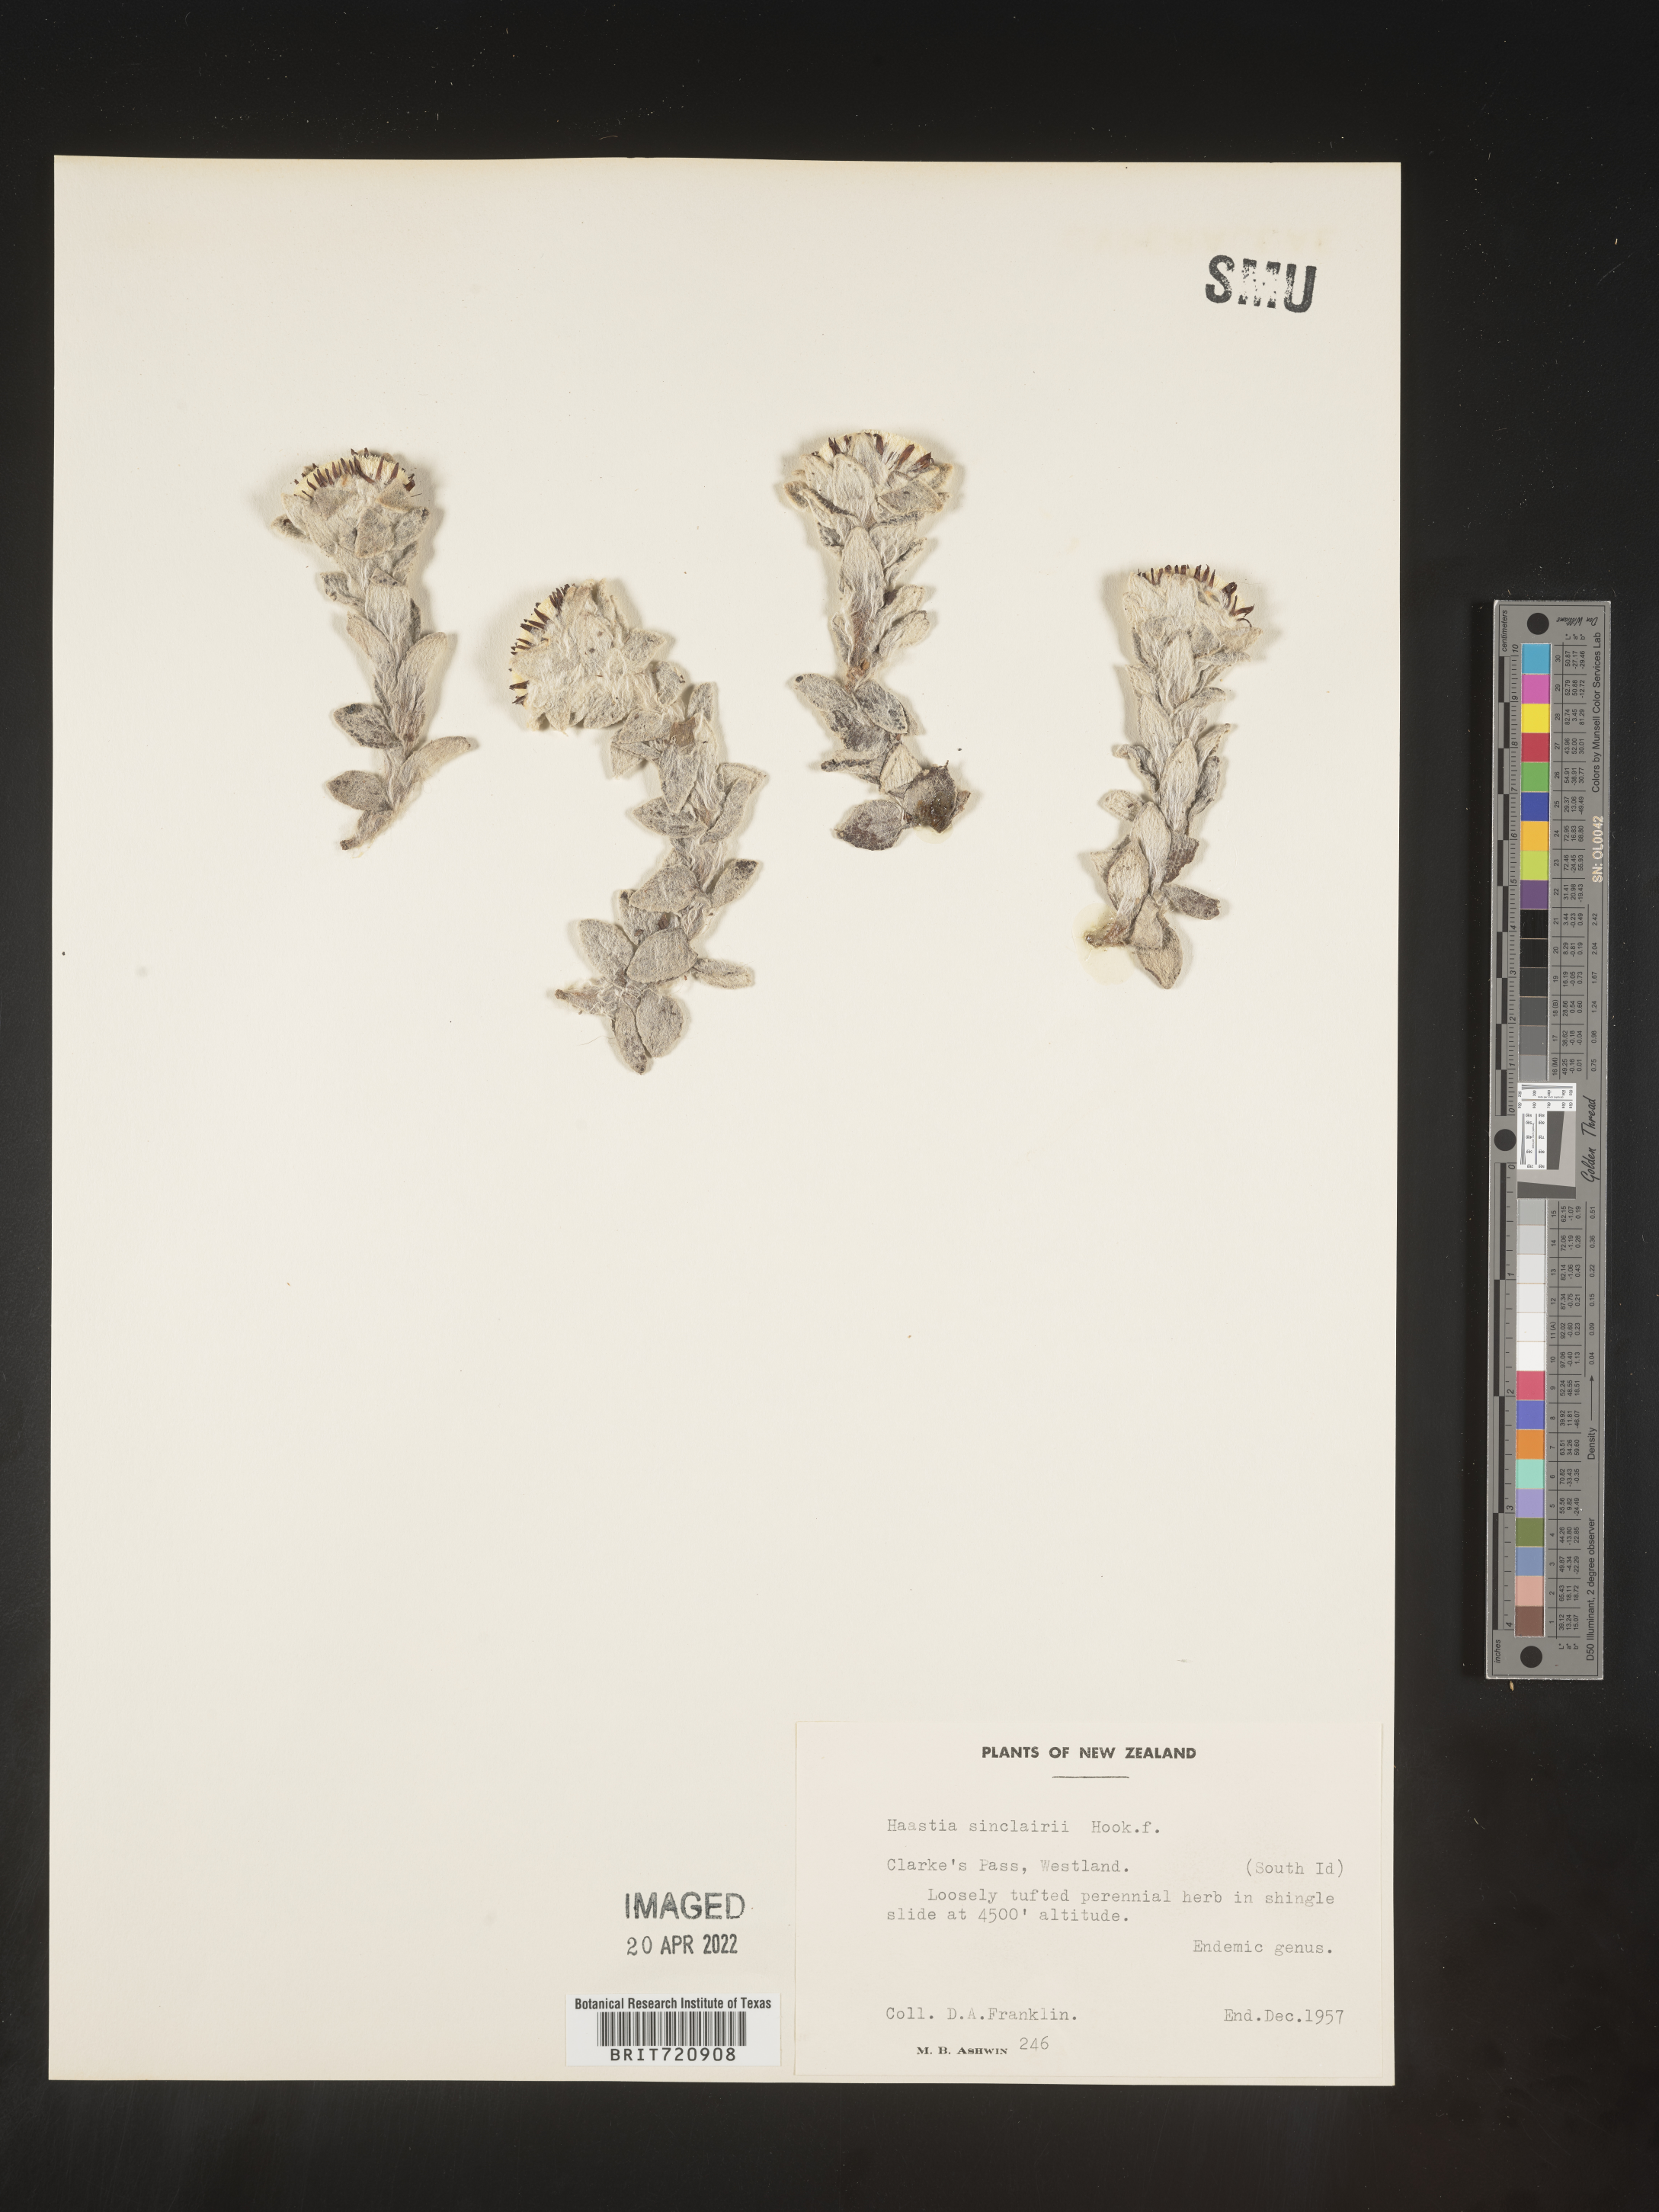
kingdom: Plantae
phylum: Tracheophyta
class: Magnoliopsida
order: Asterales
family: Asteraceae
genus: Haastia
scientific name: Haastia
